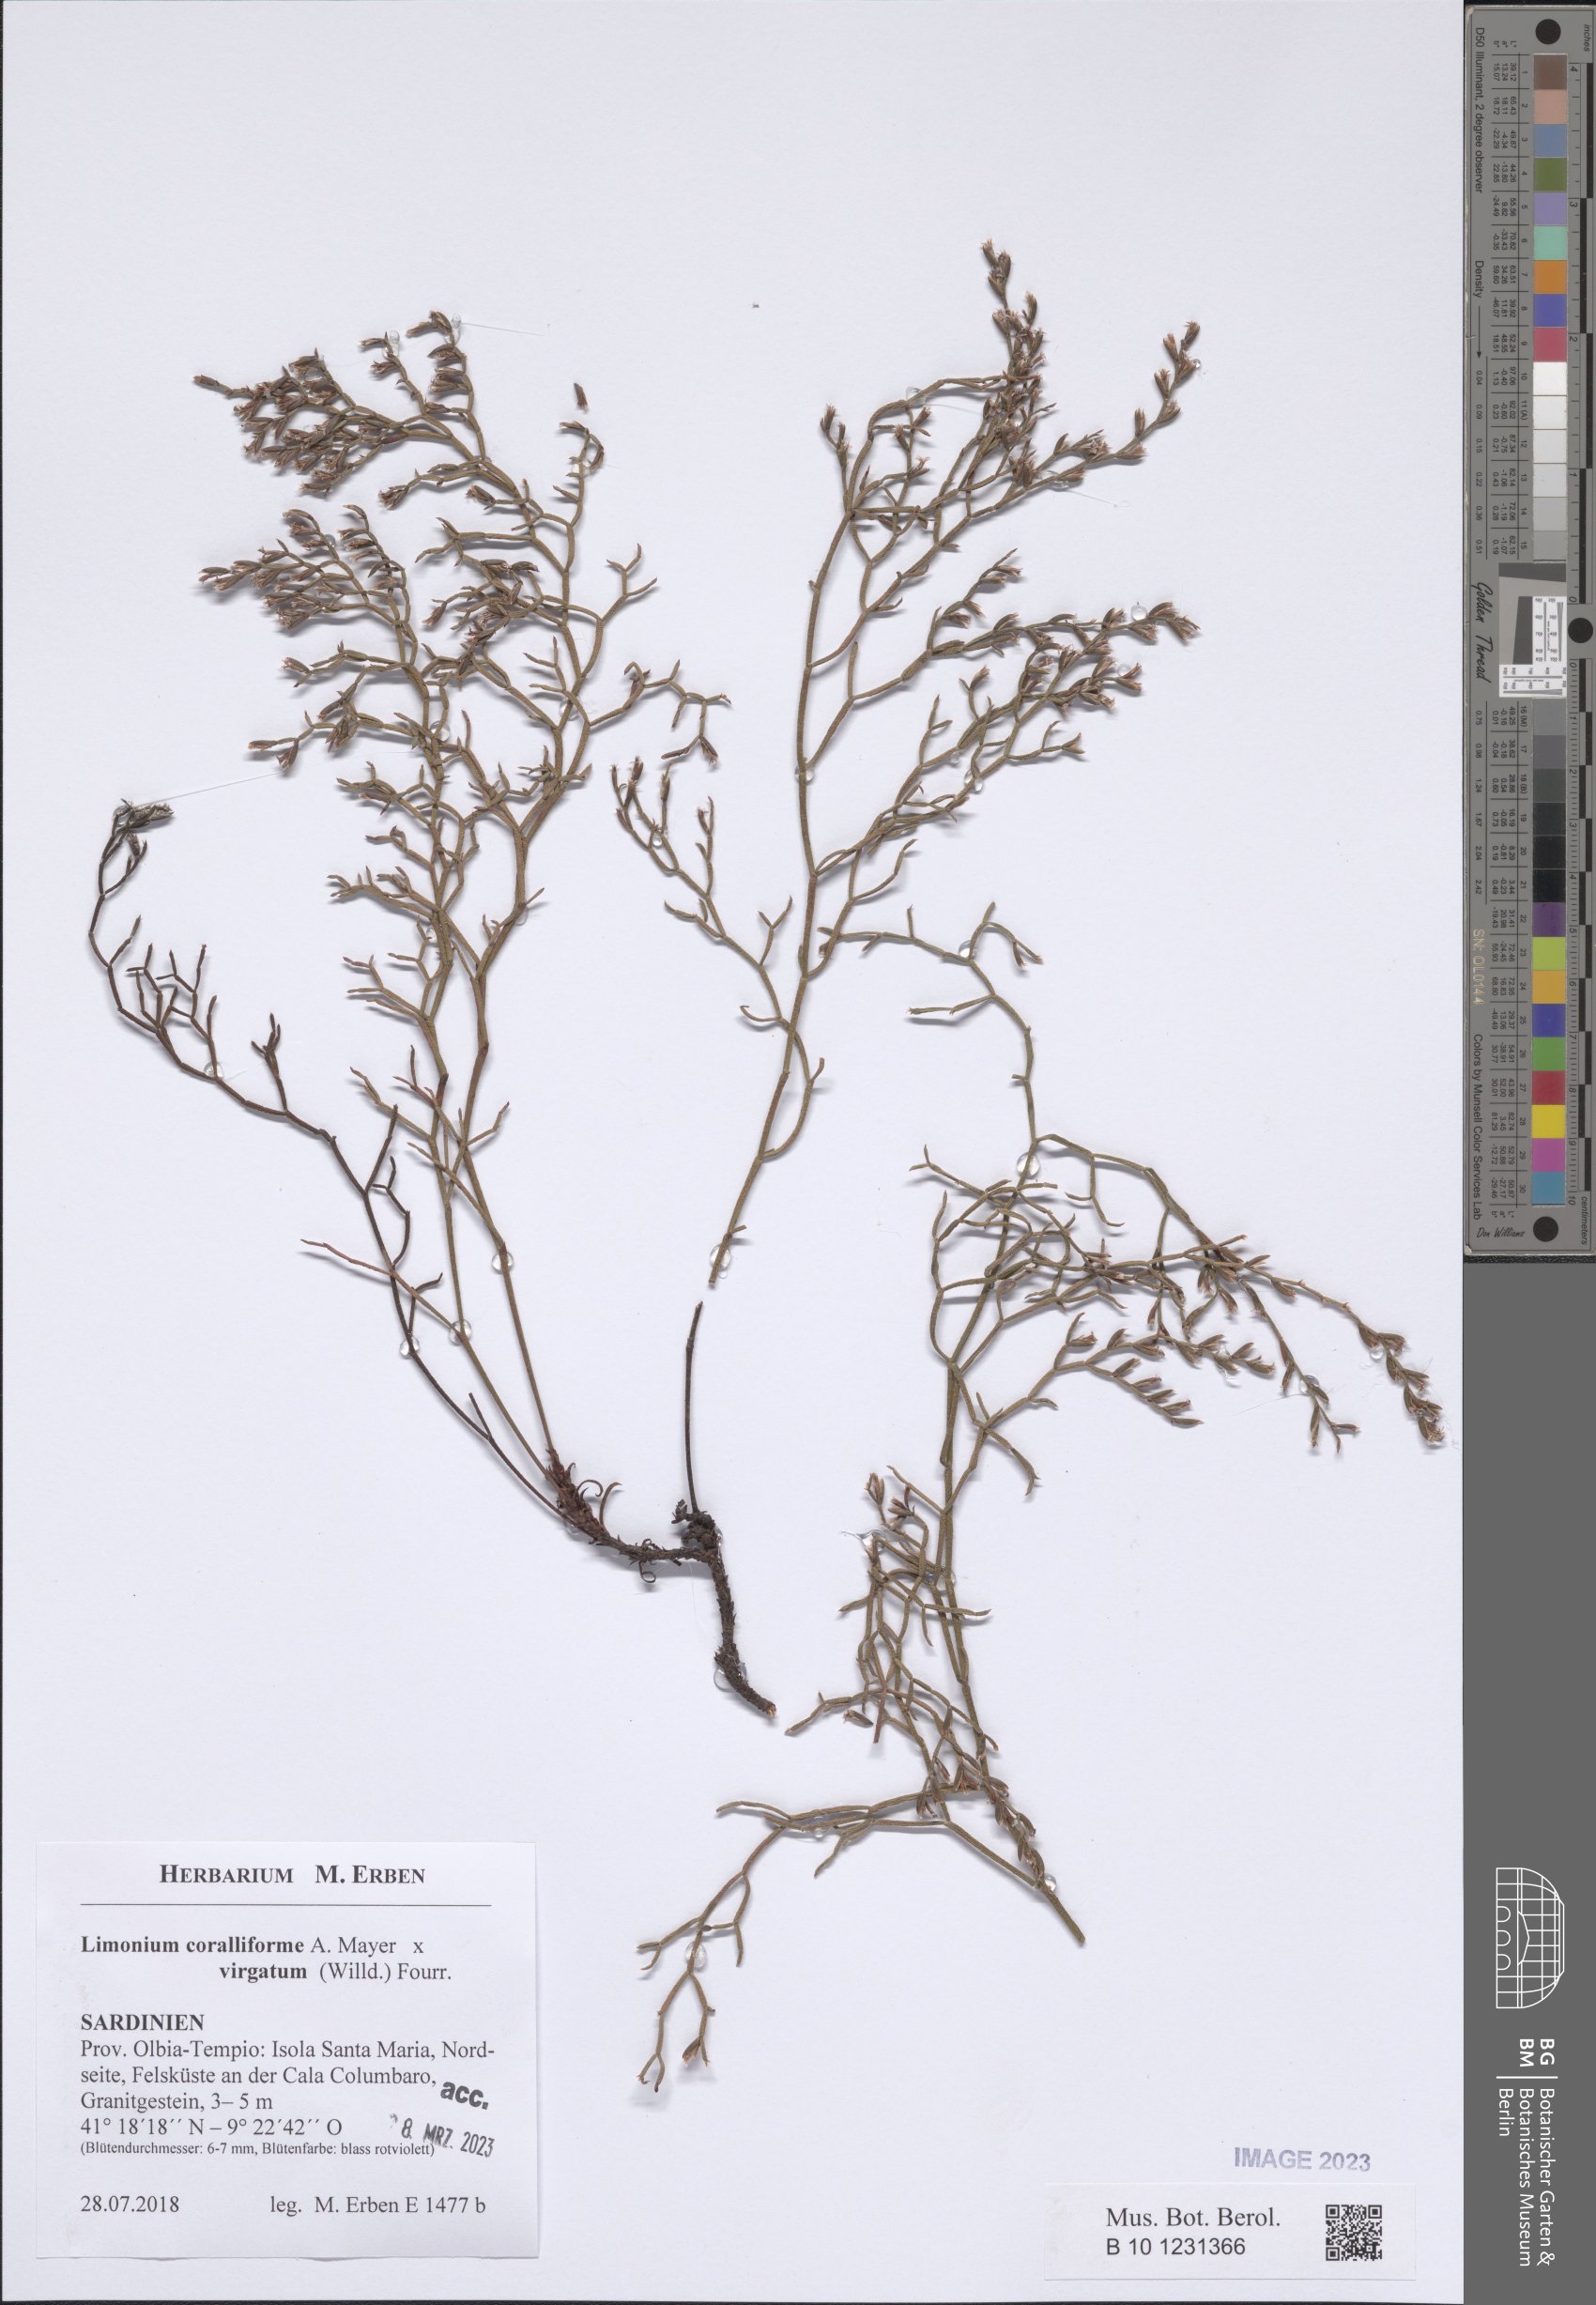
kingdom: Plantae
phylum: Tracheophyta
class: Magnoliopsida
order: Caryophyllales
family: Plumbaginaceae
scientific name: Plumbaginaceae
